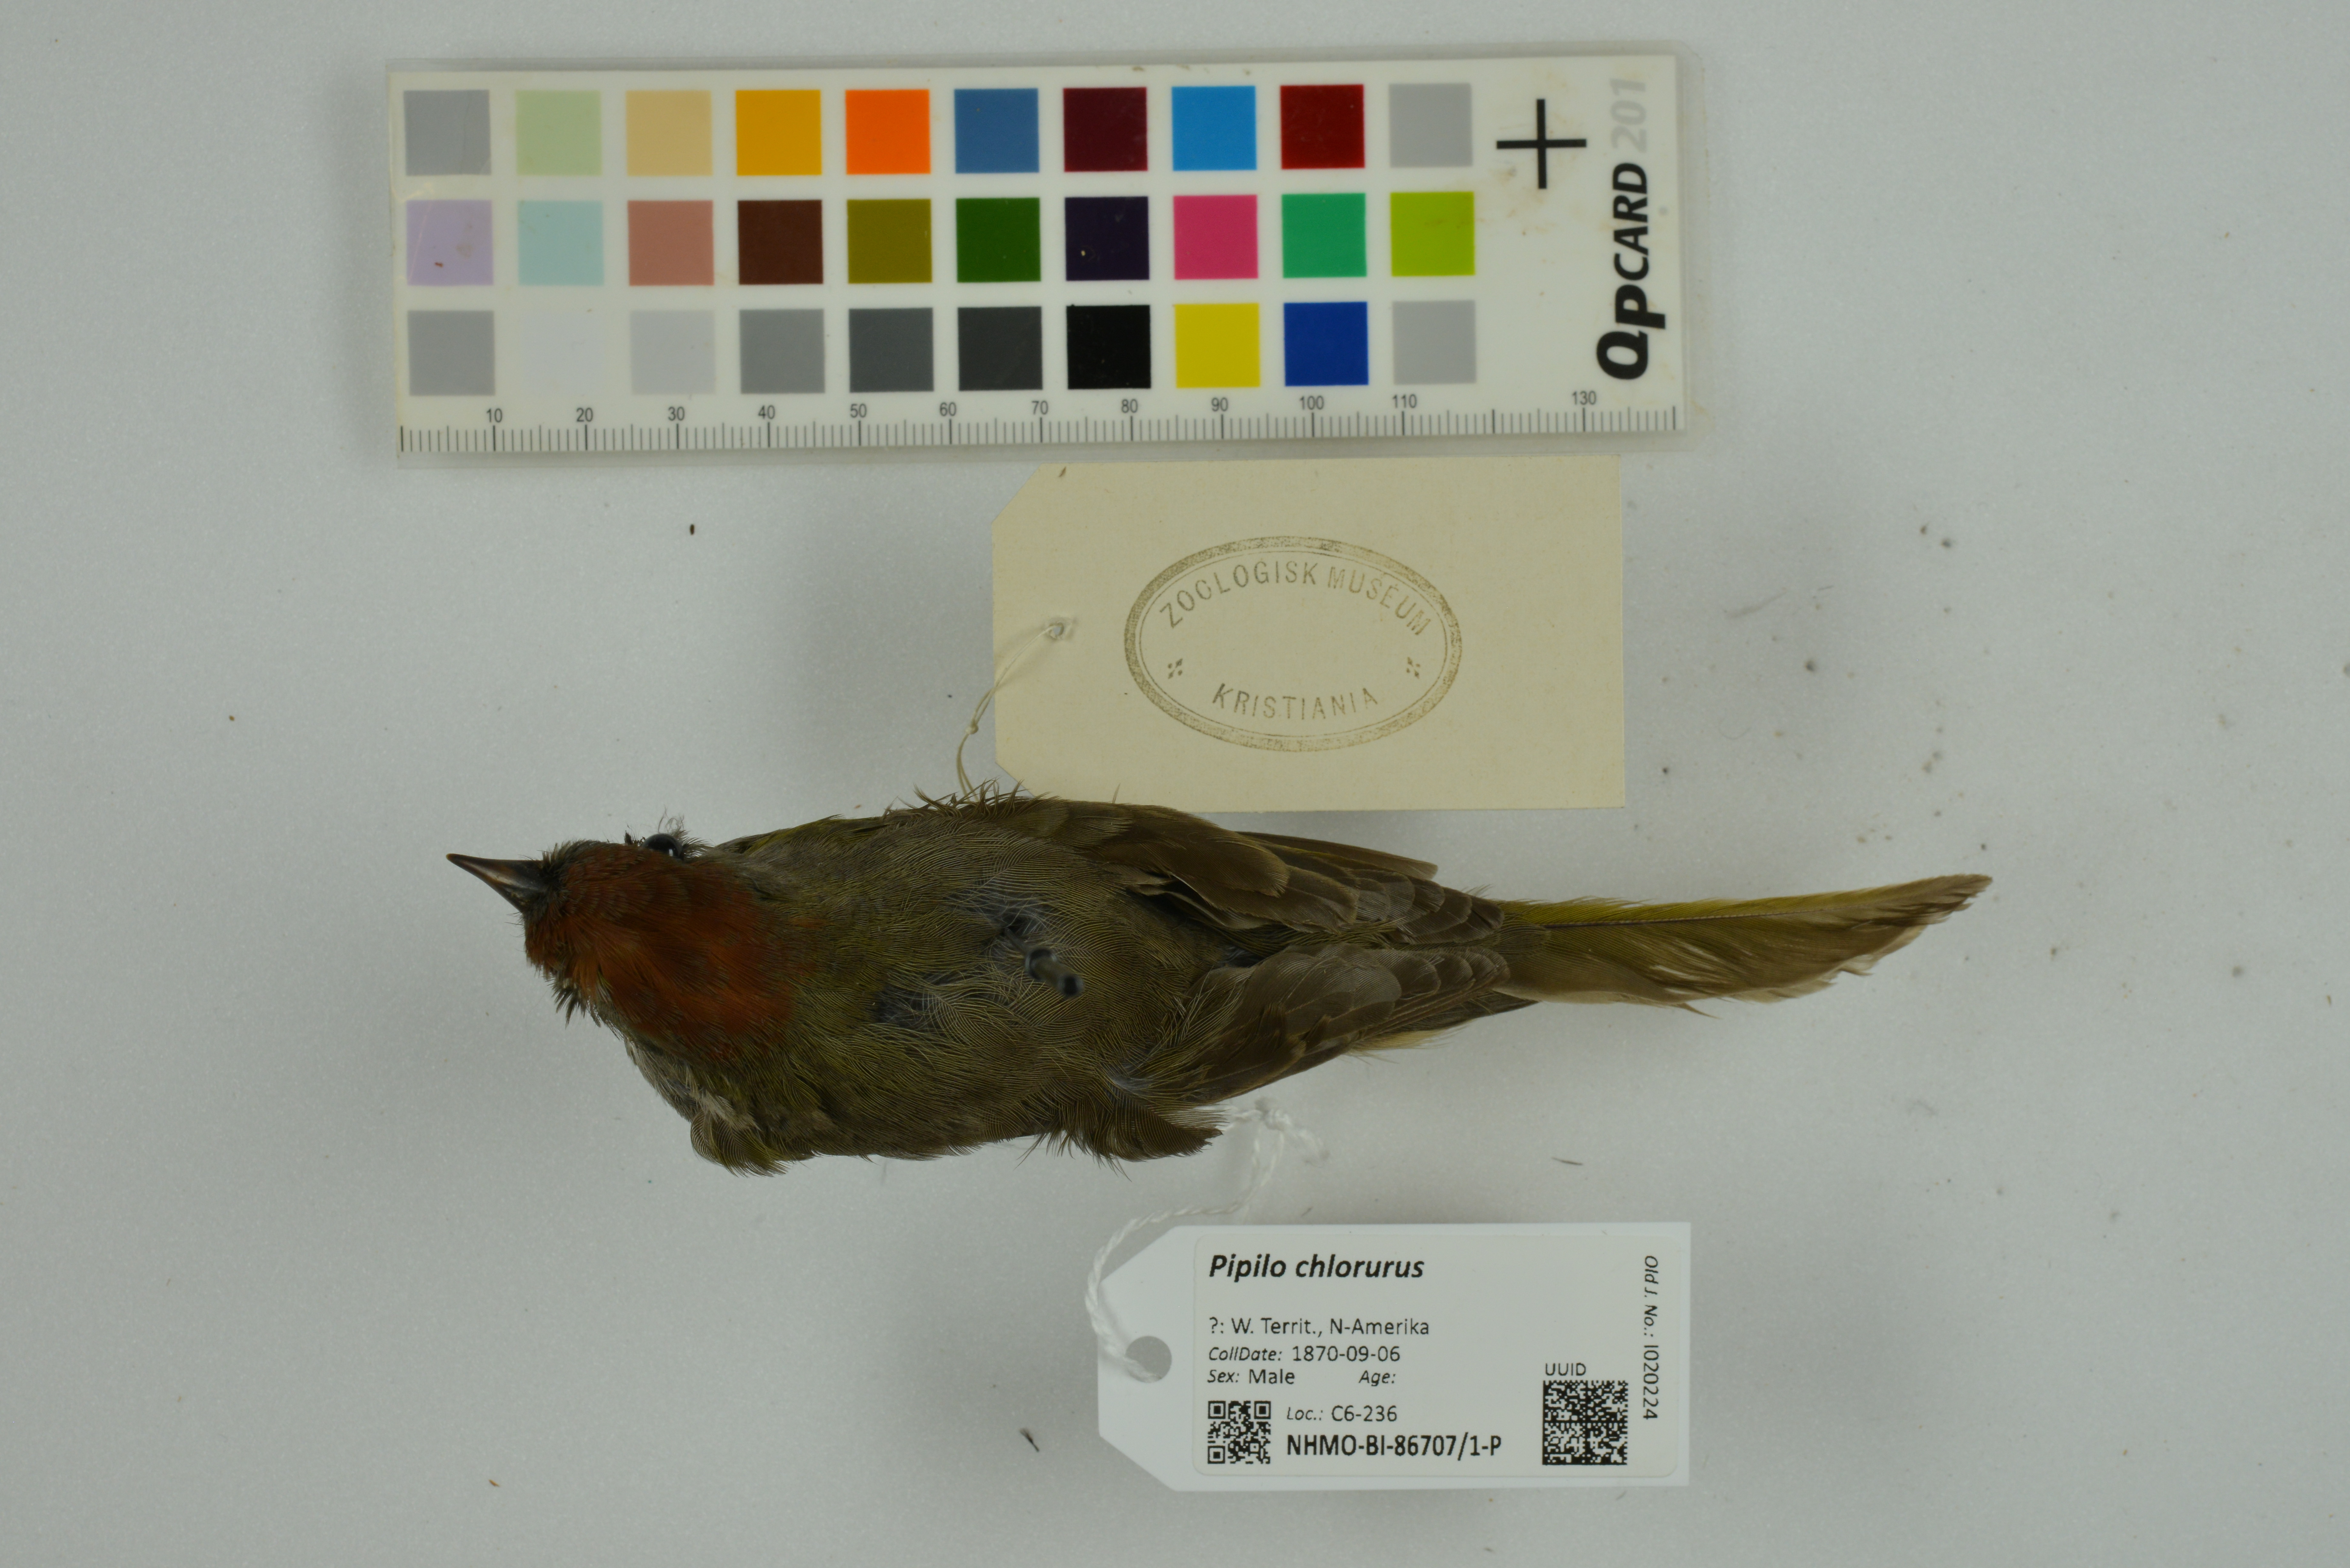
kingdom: Animalia
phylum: Chordata
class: Aves
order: Passeriformes
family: Passerellidae
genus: Pipilo
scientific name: Pipilo chlorurus
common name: Green-tailed towhee
